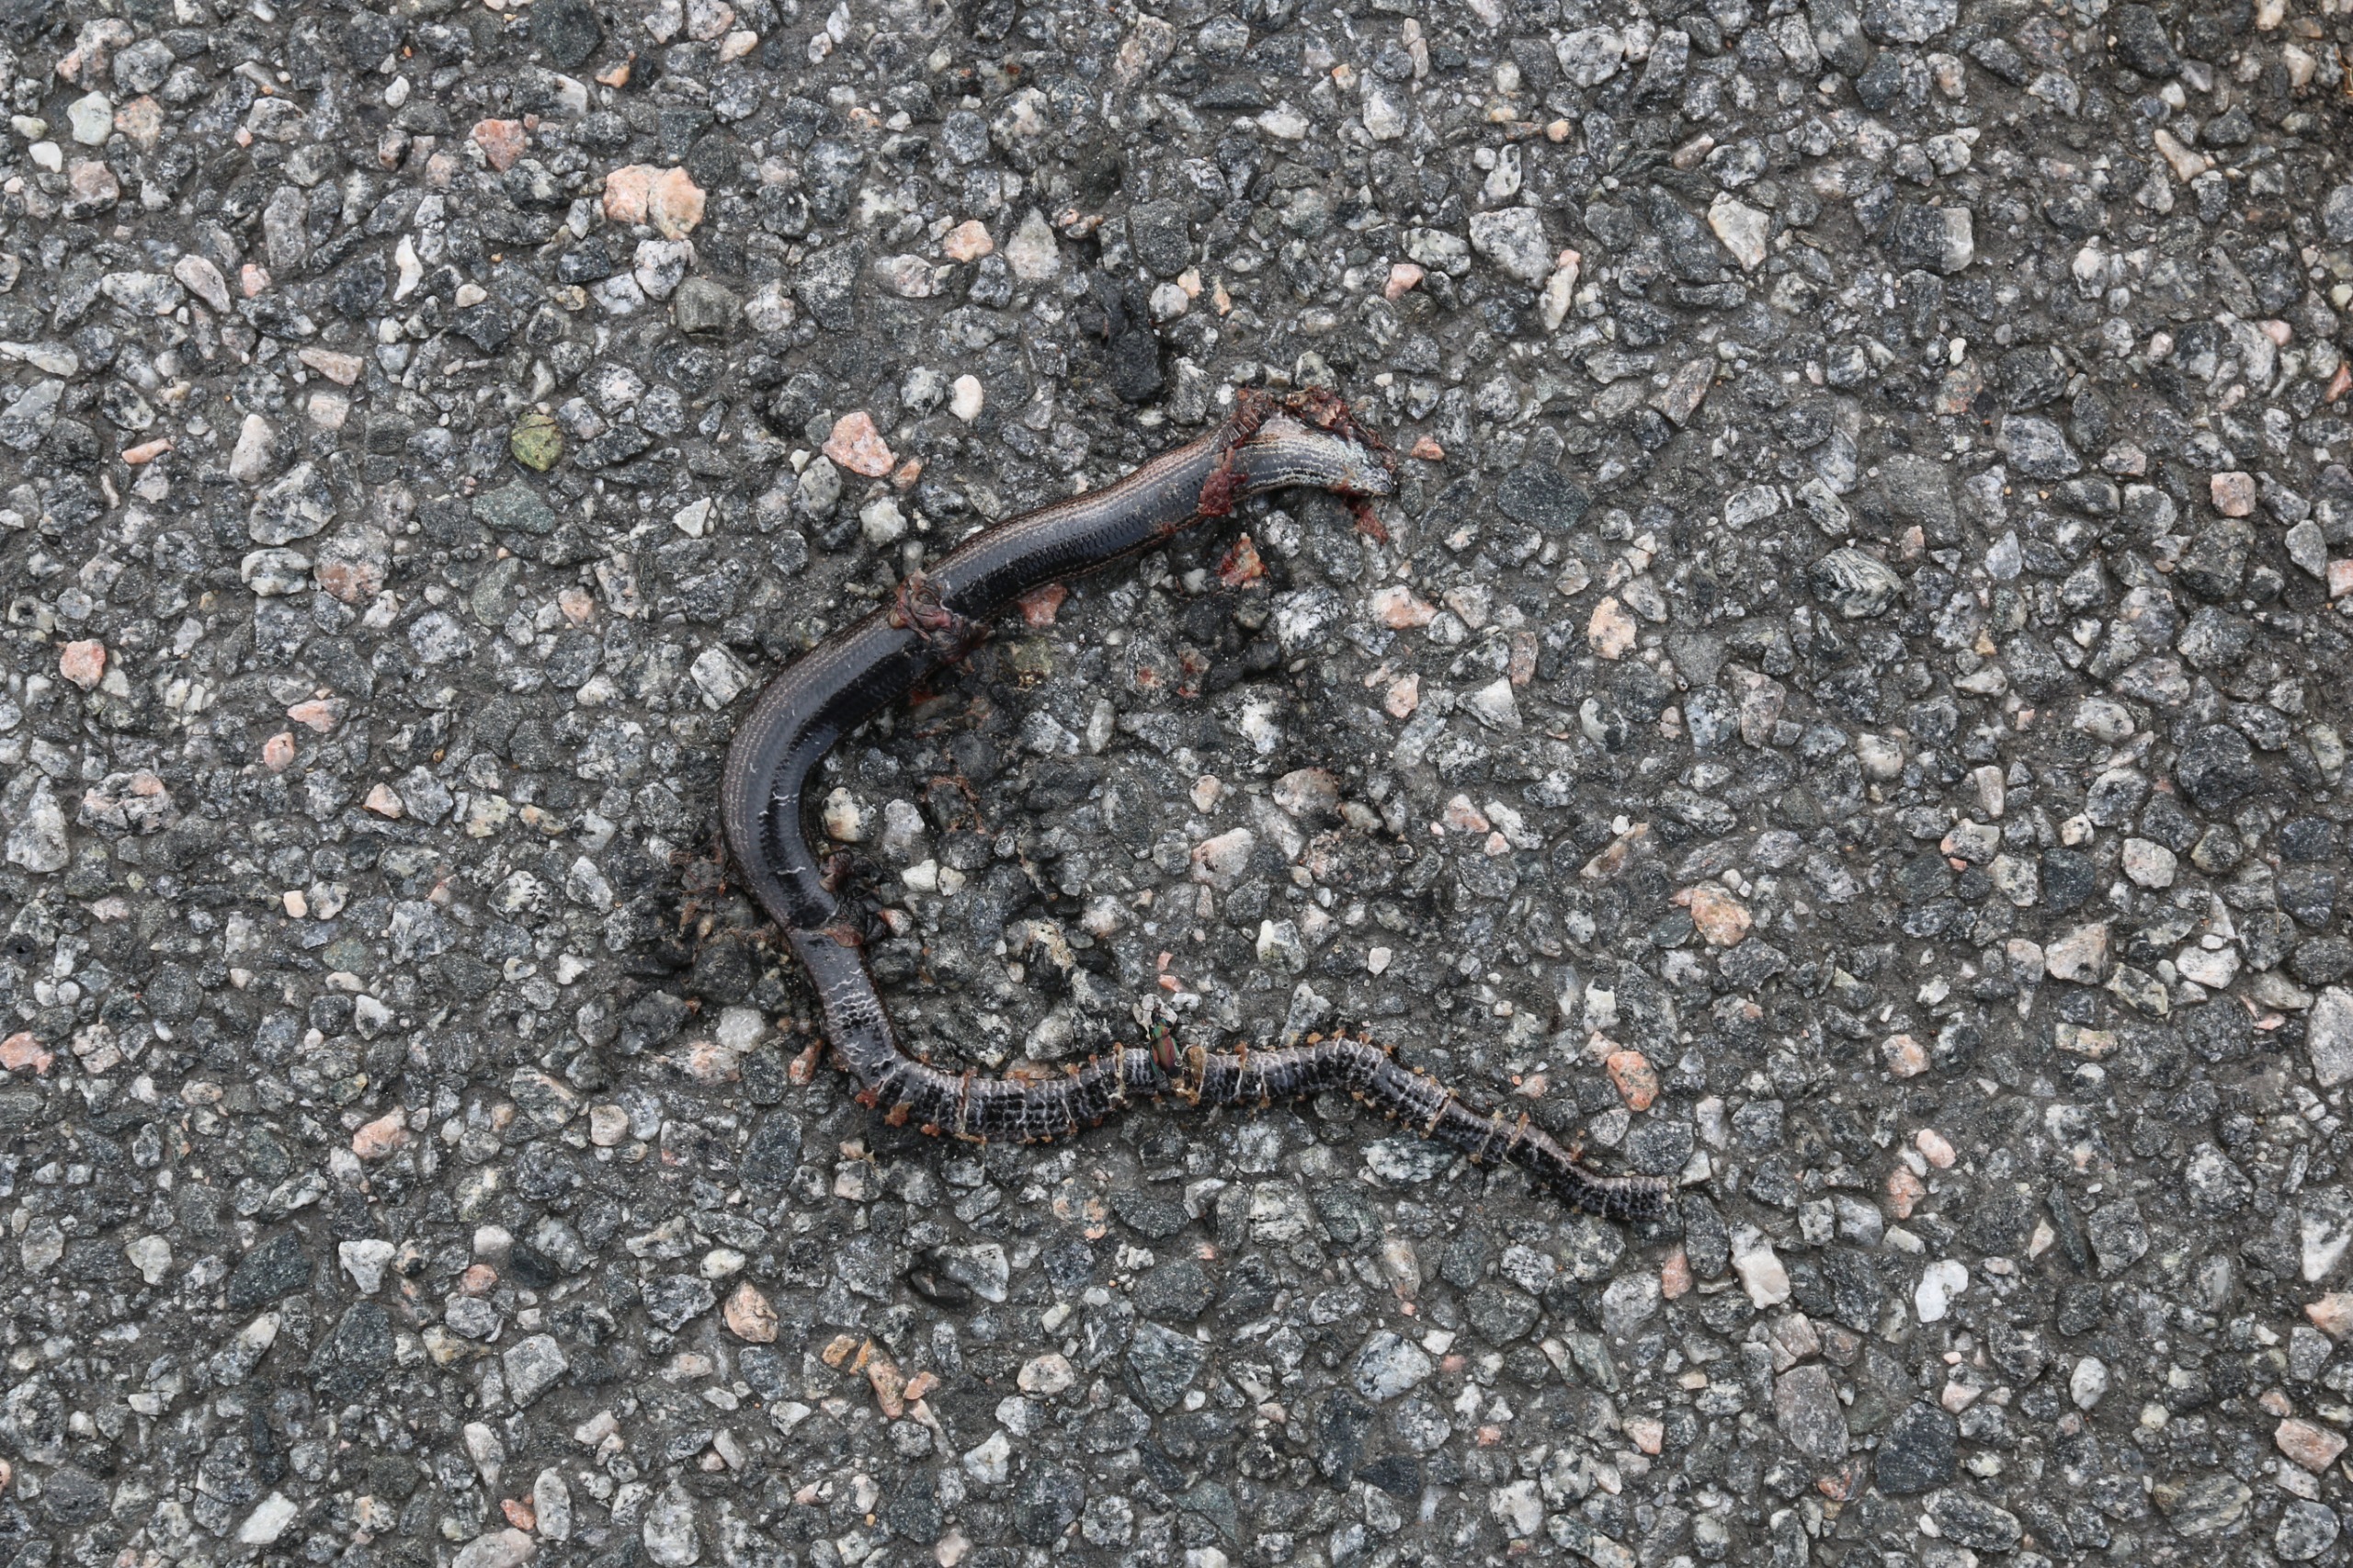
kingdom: Animalia
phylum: Chordata
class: Squamata
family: Anguidae
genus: Anguis
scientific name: Anguis fragilis
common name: Stålorm
